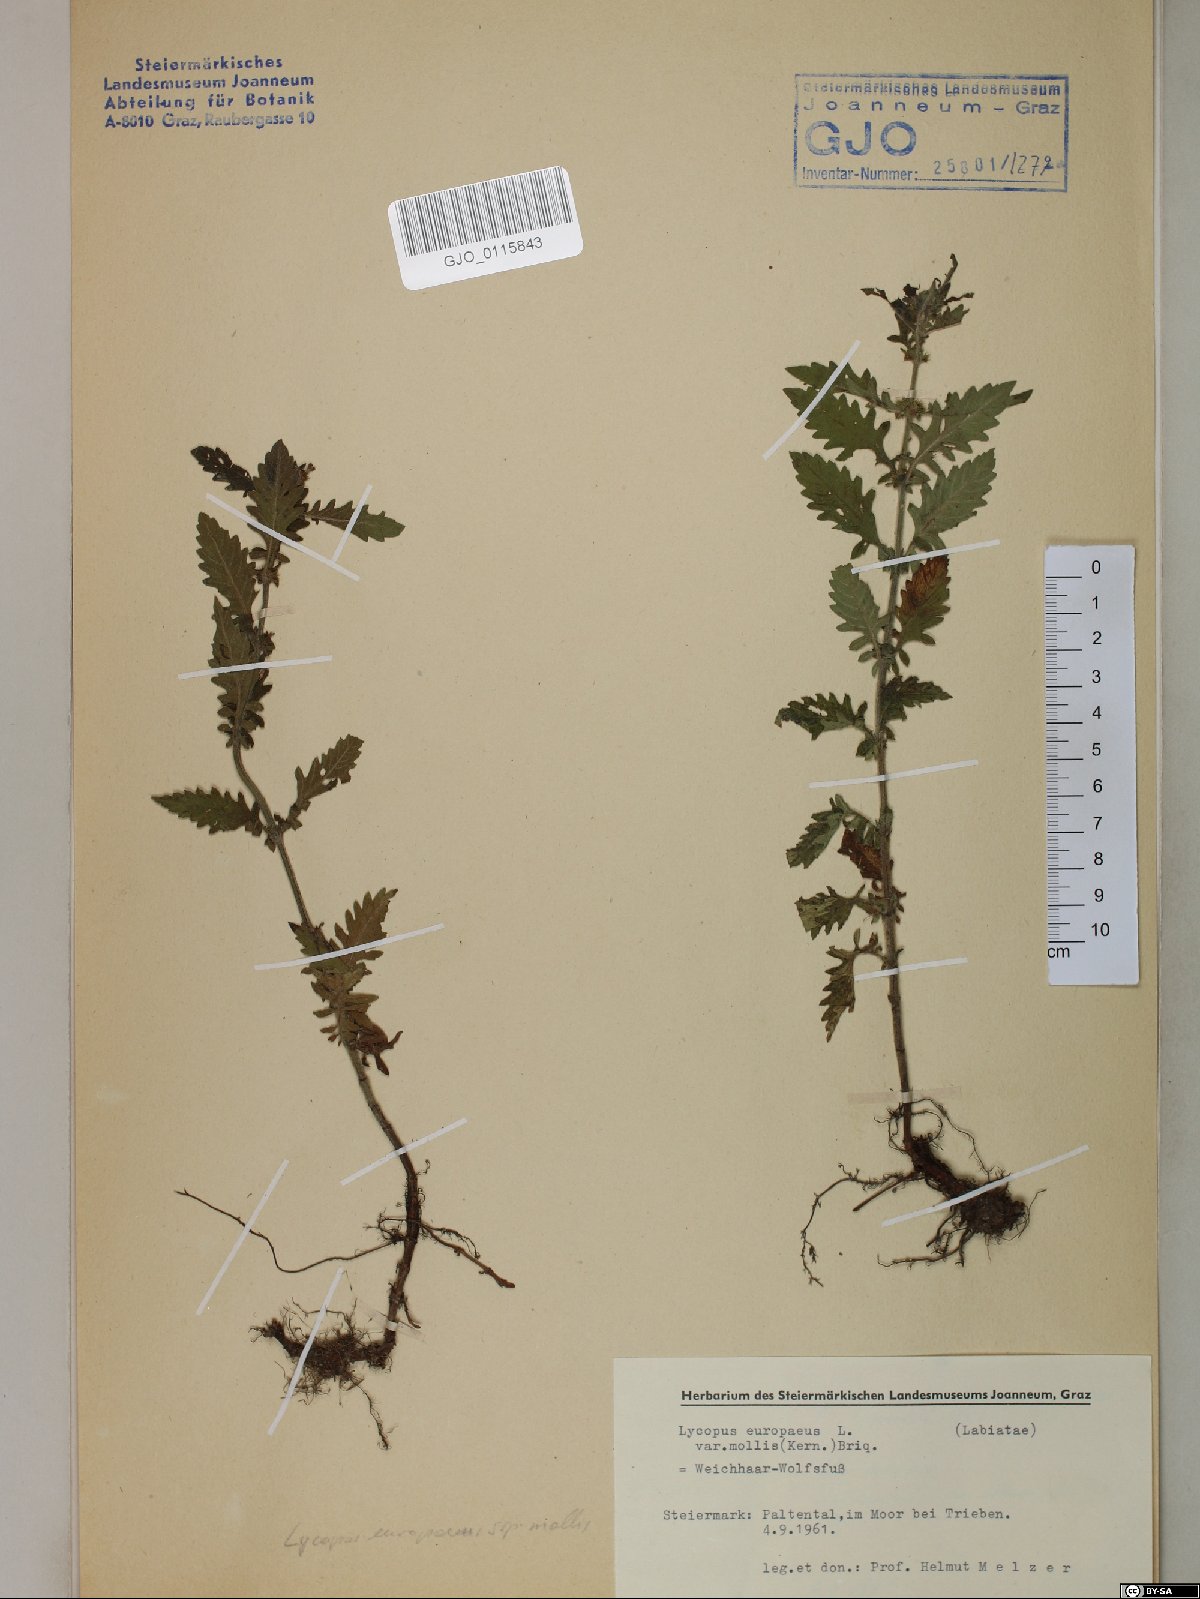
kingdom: Plantae
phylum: Tracheophyta
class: Magnoliopsida
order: Lamiales
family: Lamiaceae
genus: Lycopus
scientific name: Lycopus europaeus
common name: European bugleweed
